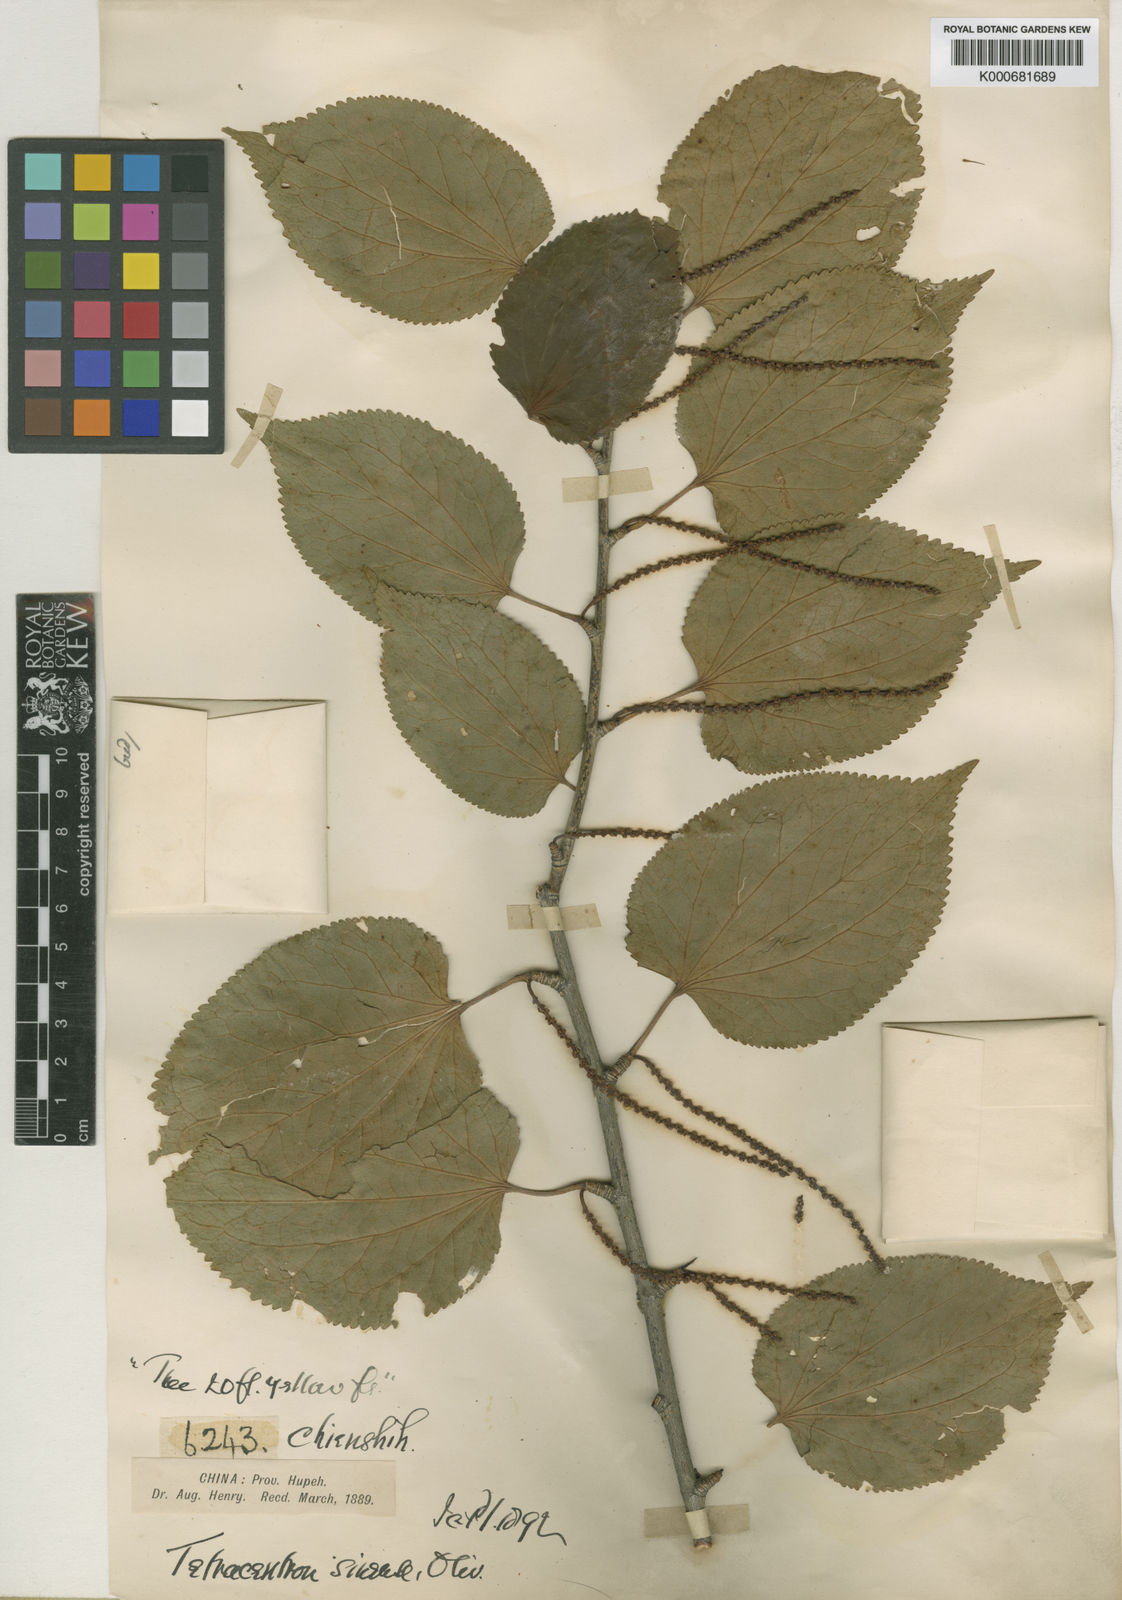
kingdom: Plantae
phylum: Tracheophyta
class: Magnoliopsida
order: Trochodendrales
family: Trochodendraceae
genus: Tetracentron
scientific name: Tetracentron sinense
